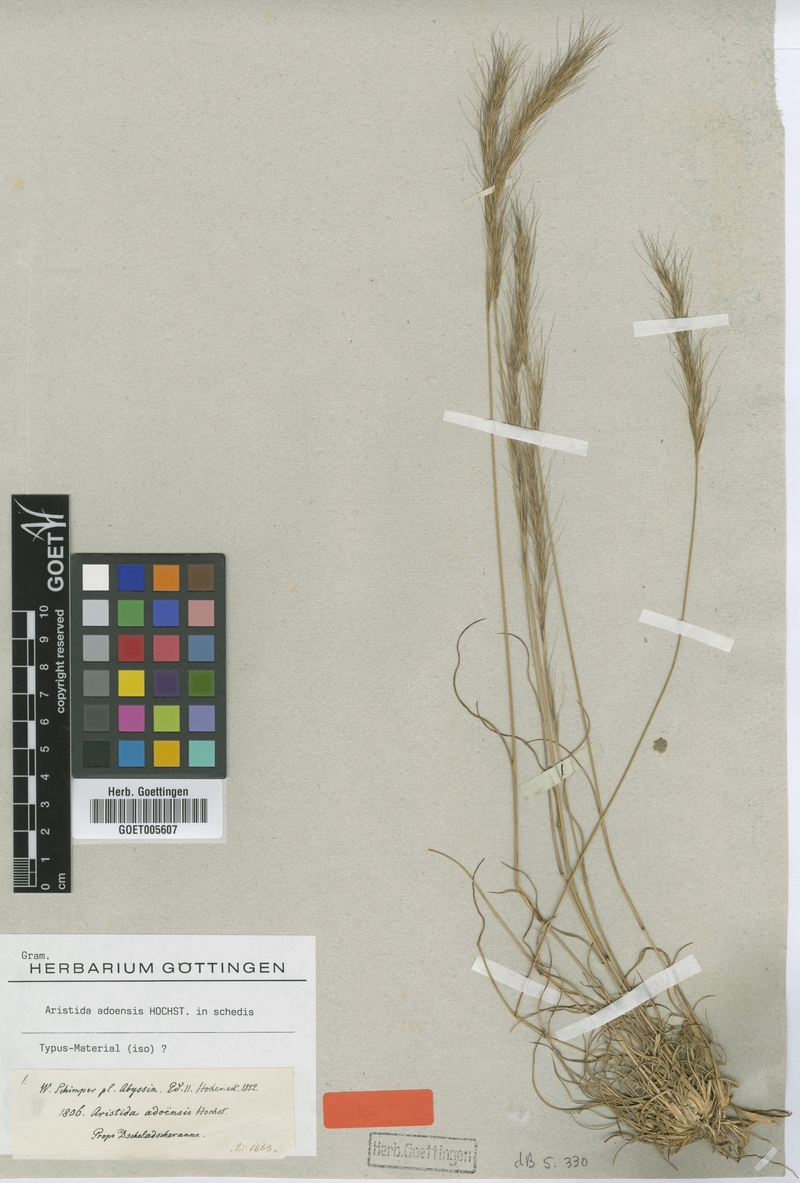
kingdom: Plantae
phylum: Tracheophyta
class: Liliopsida
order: Poales
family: Poaceae
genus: Aristida
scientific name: Aristida adoensis
